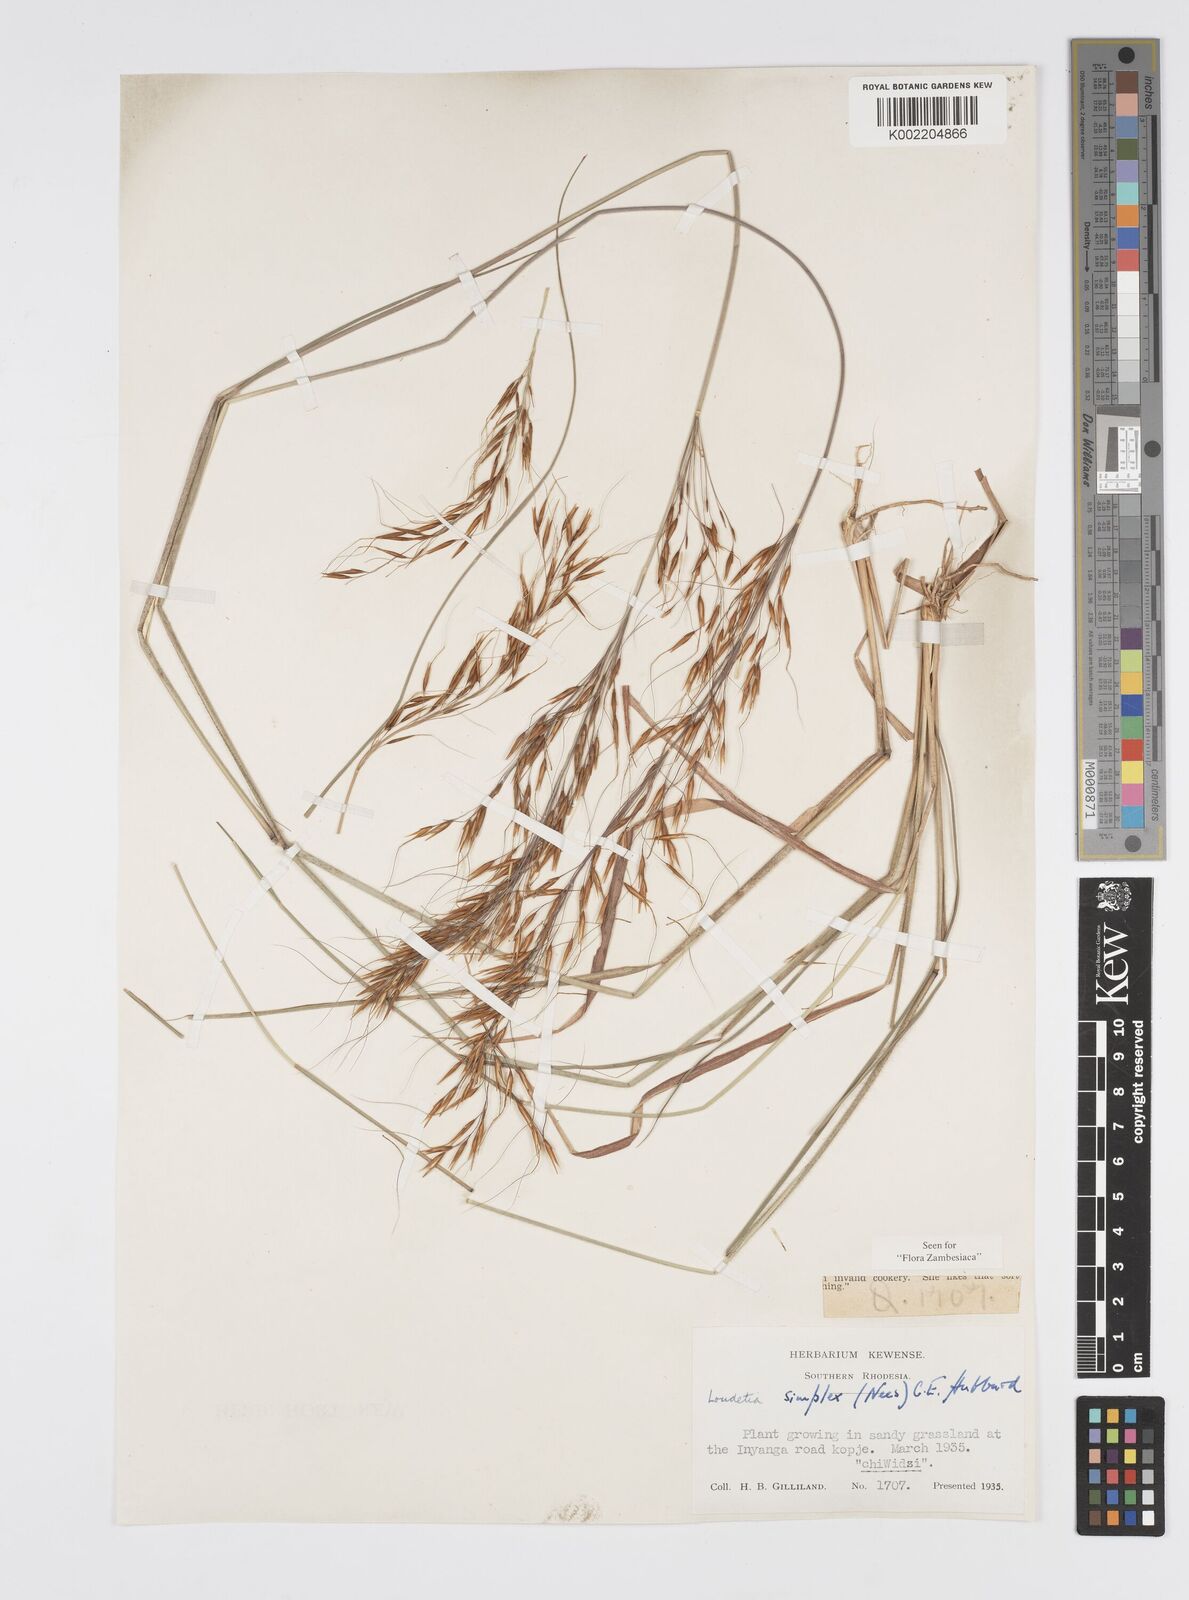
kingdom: Plantae
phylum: Tracheophyta
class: Liliopsida
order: Poales
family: Poaceae
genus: Loudetia
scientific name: Loudetia simplex
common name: Common russet grass
